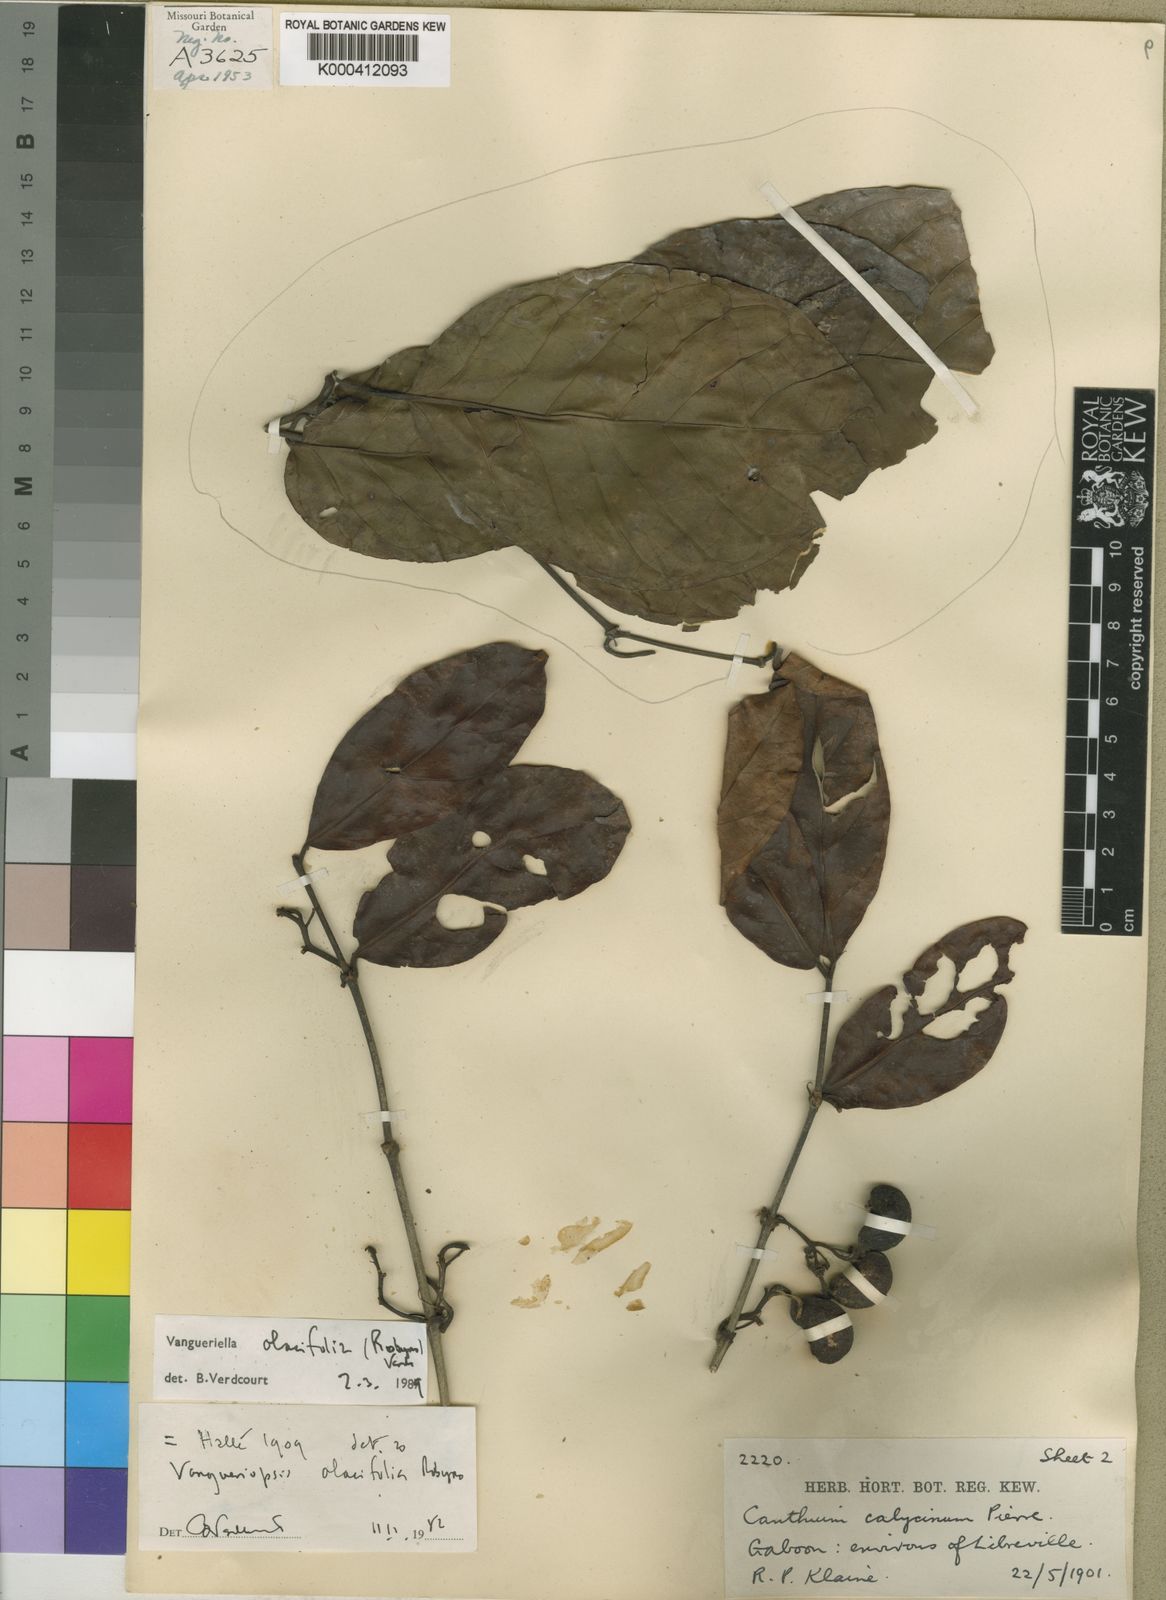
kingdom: Plantae
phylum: Tracheophyta
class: Magnoliopsida
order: Gentianales
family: Rubiaceae
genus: Vangueriella
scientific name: Vangueriella olacifolia
